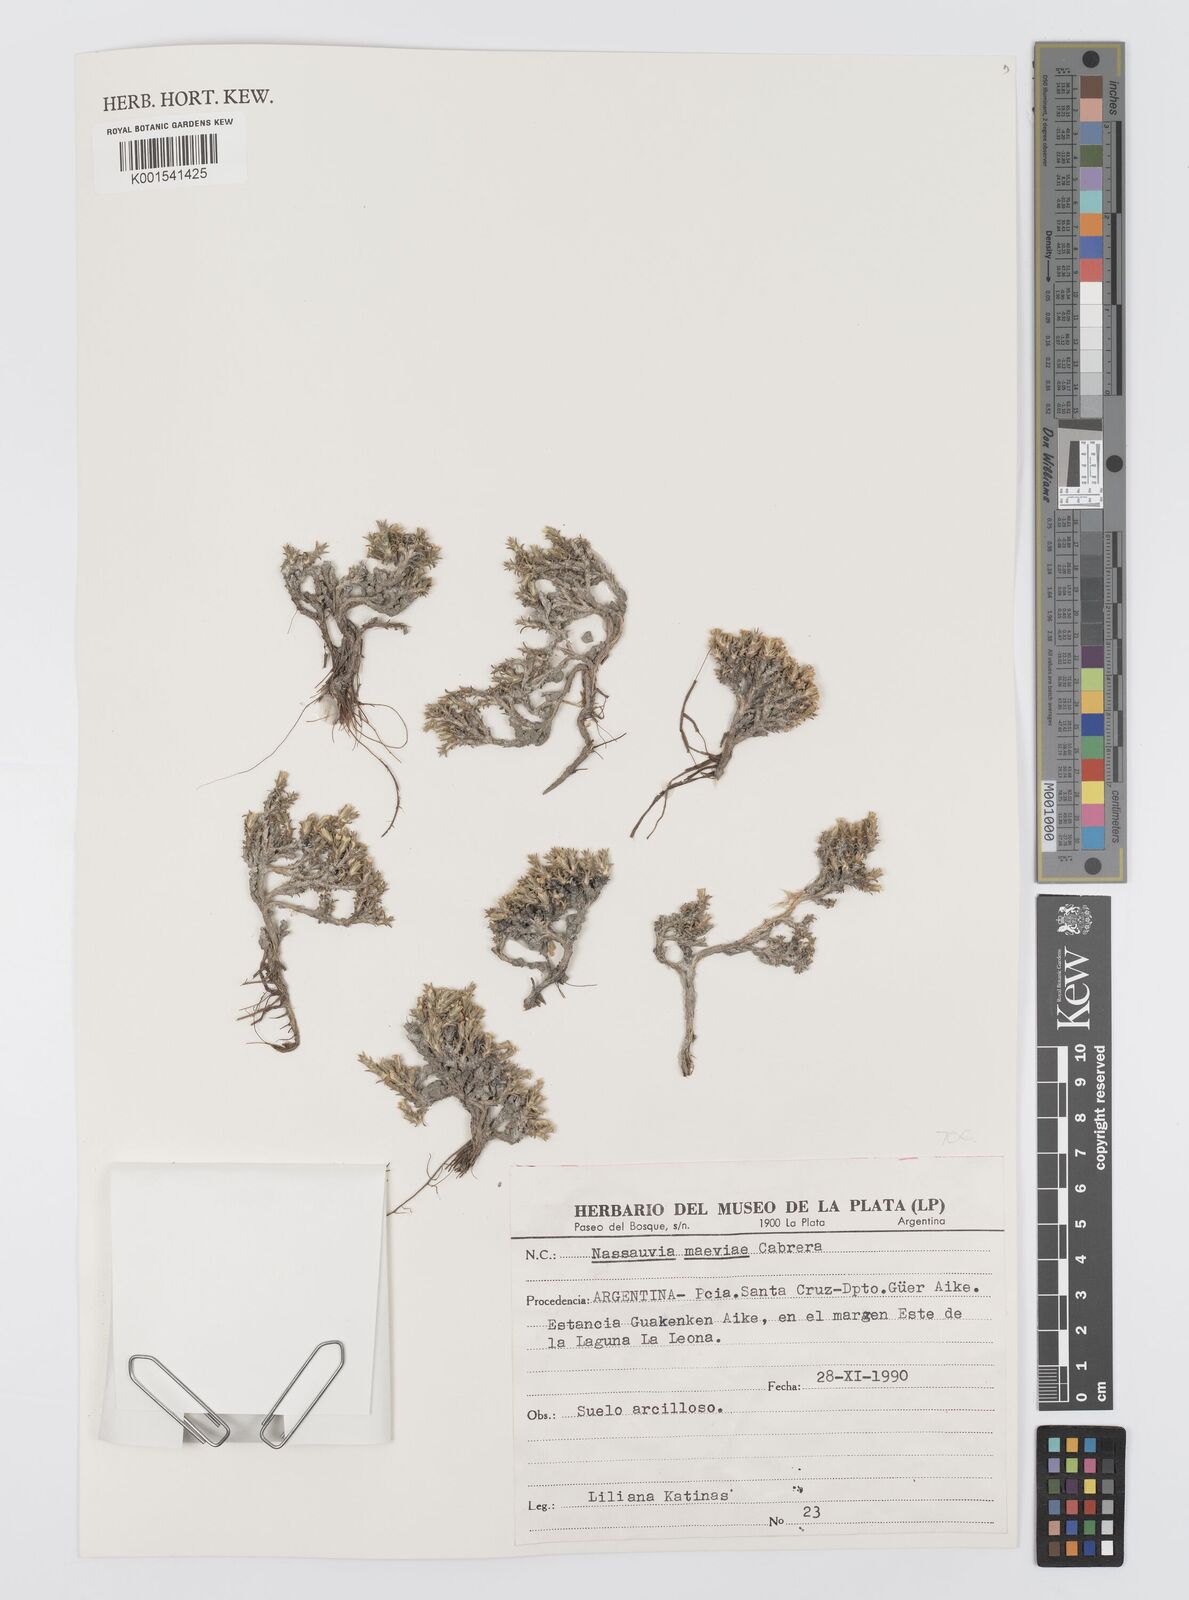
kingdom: Plantae
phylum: Tracheophyta
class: Magnoliopsida
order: Asterales
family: Asteraceae
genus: Nassauvia
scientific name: Nassauvia glomerulosa
